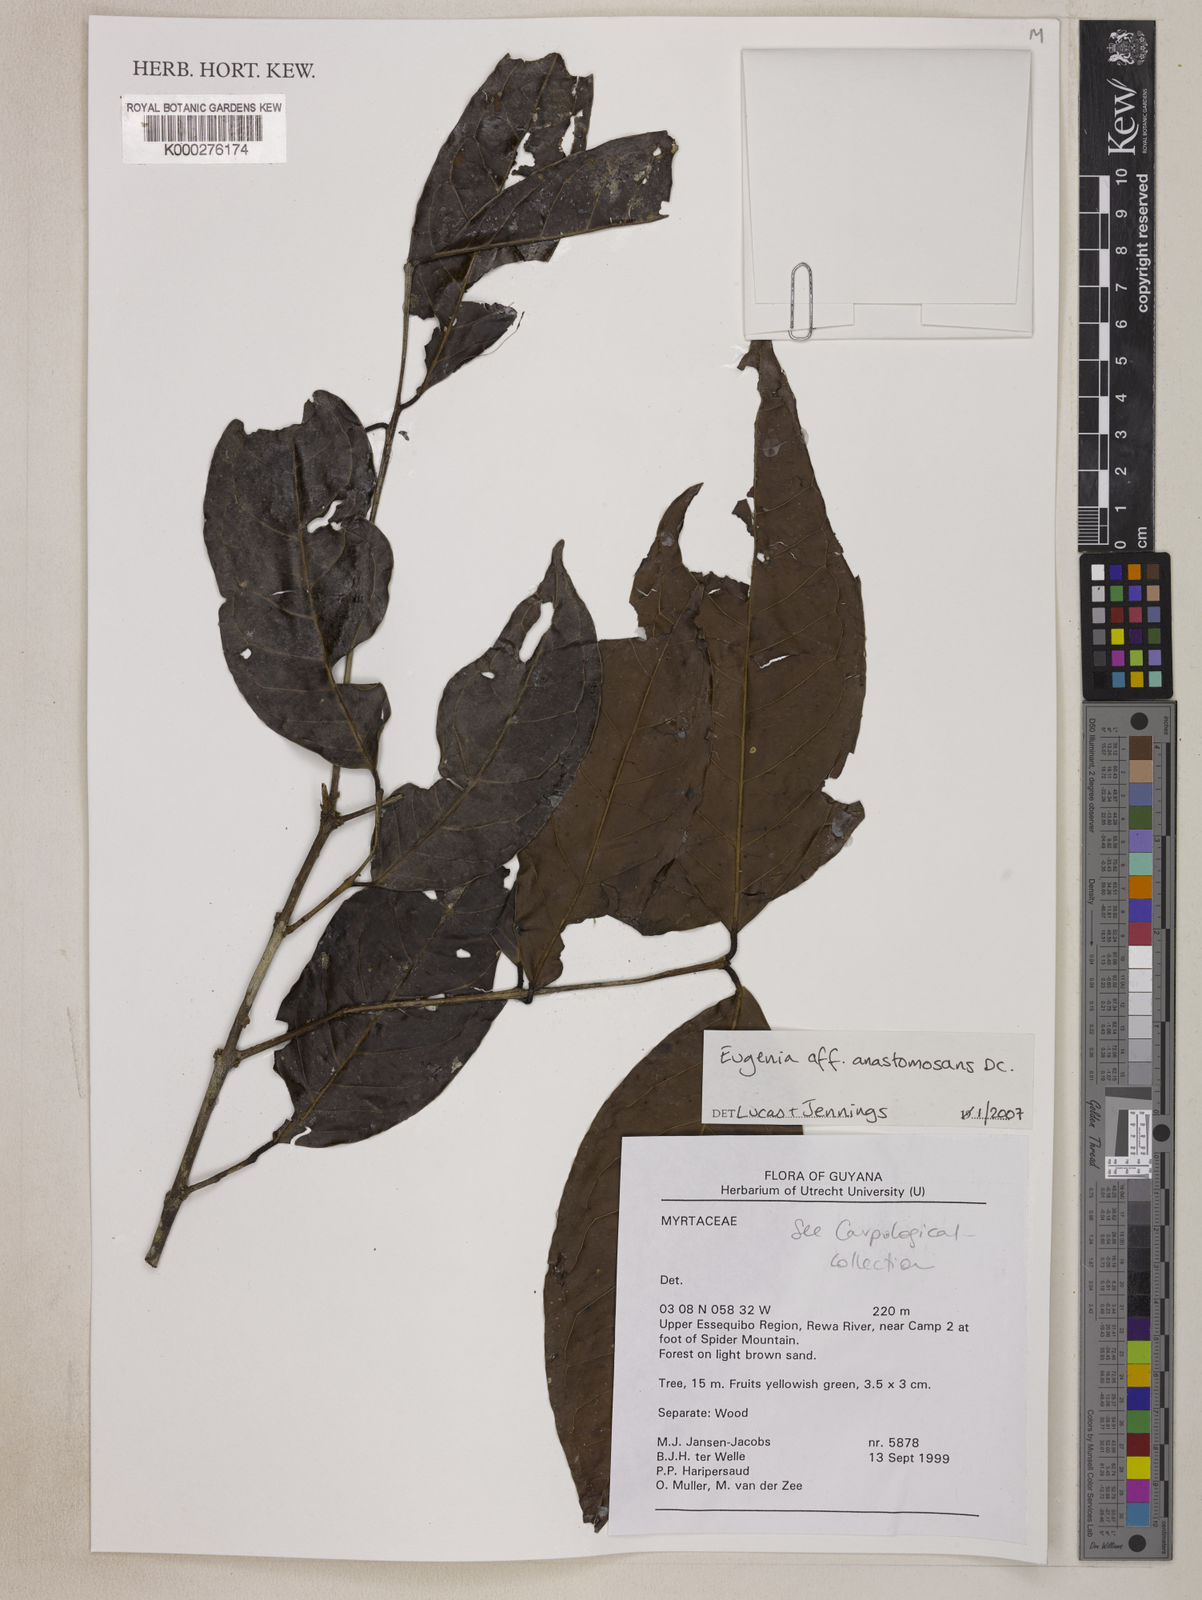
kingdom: Plantae
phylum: Tracheophyta
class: Magnoliopsida
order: Myrtales
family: Myrtaceae
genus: Eugenia
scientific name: Eugenia anastomosans
